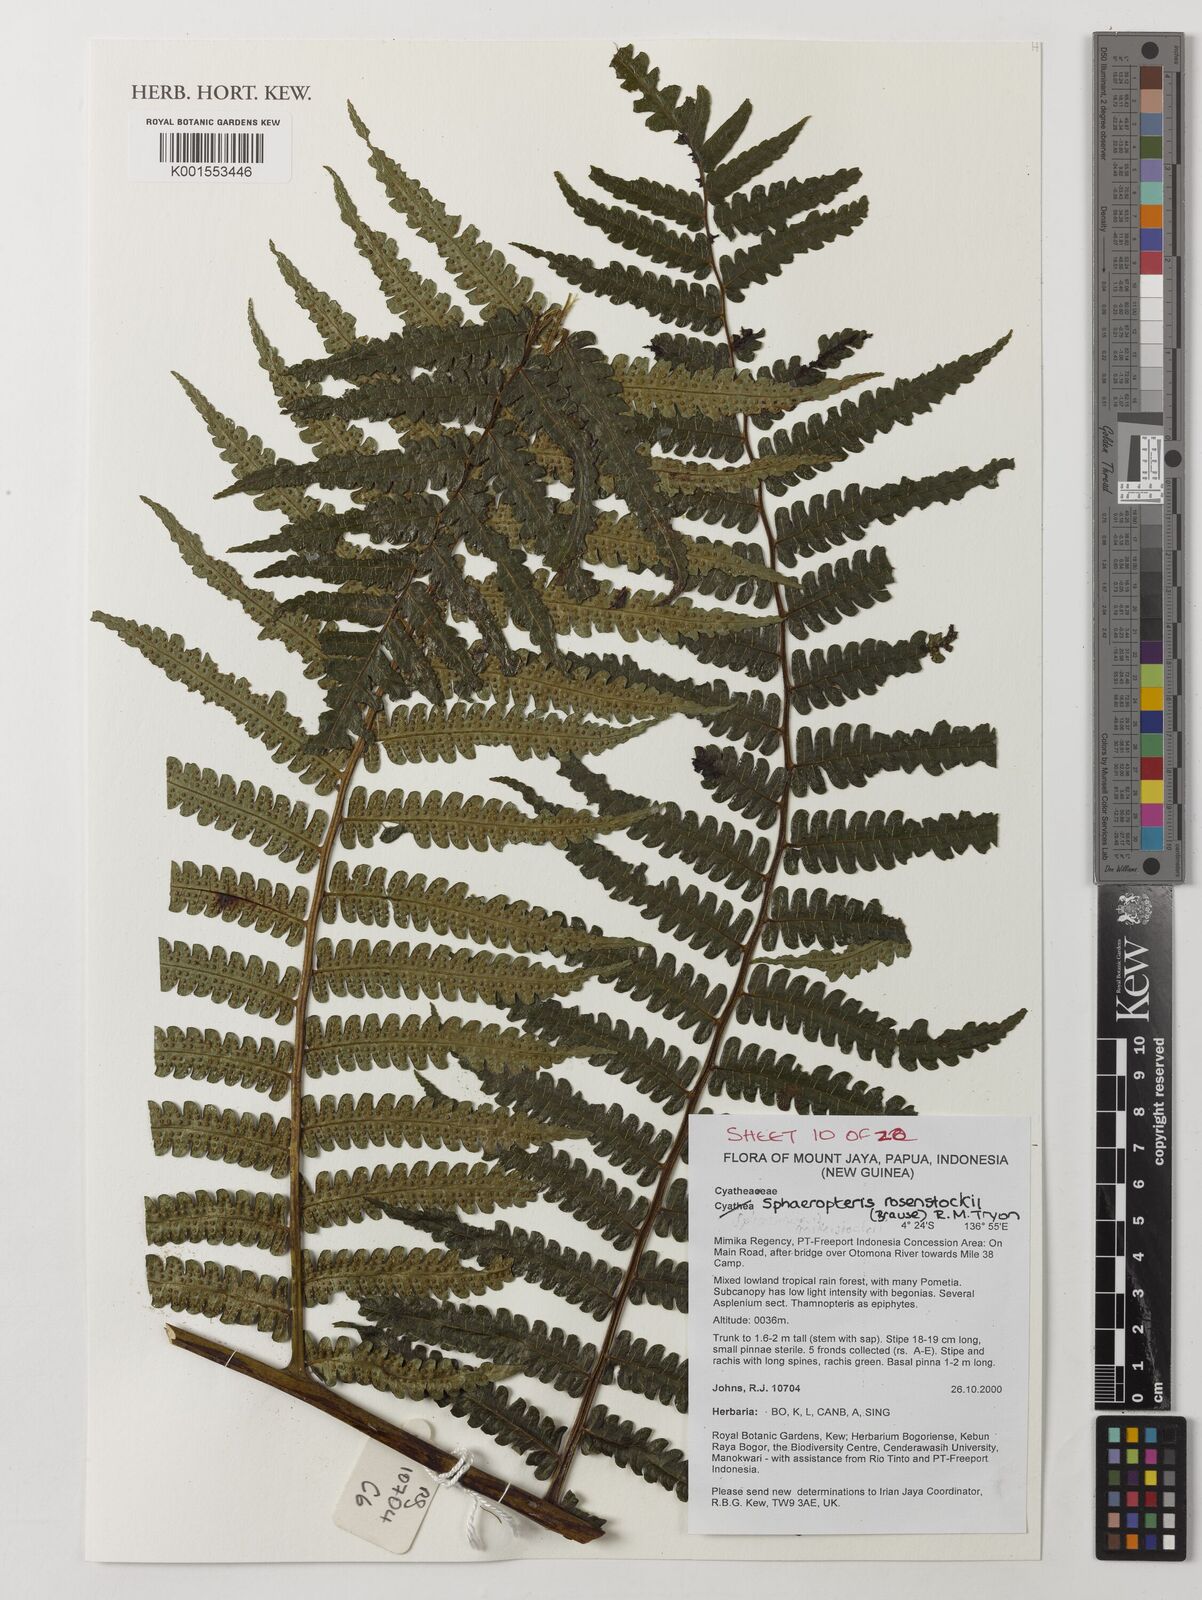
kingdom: Plantae
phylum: Tracheophyta
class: Polypodiopsida
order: Cyatheales
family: Cyatheaceae
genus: Sphaeropteris
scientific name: Sphaeropteris rosenstockii
